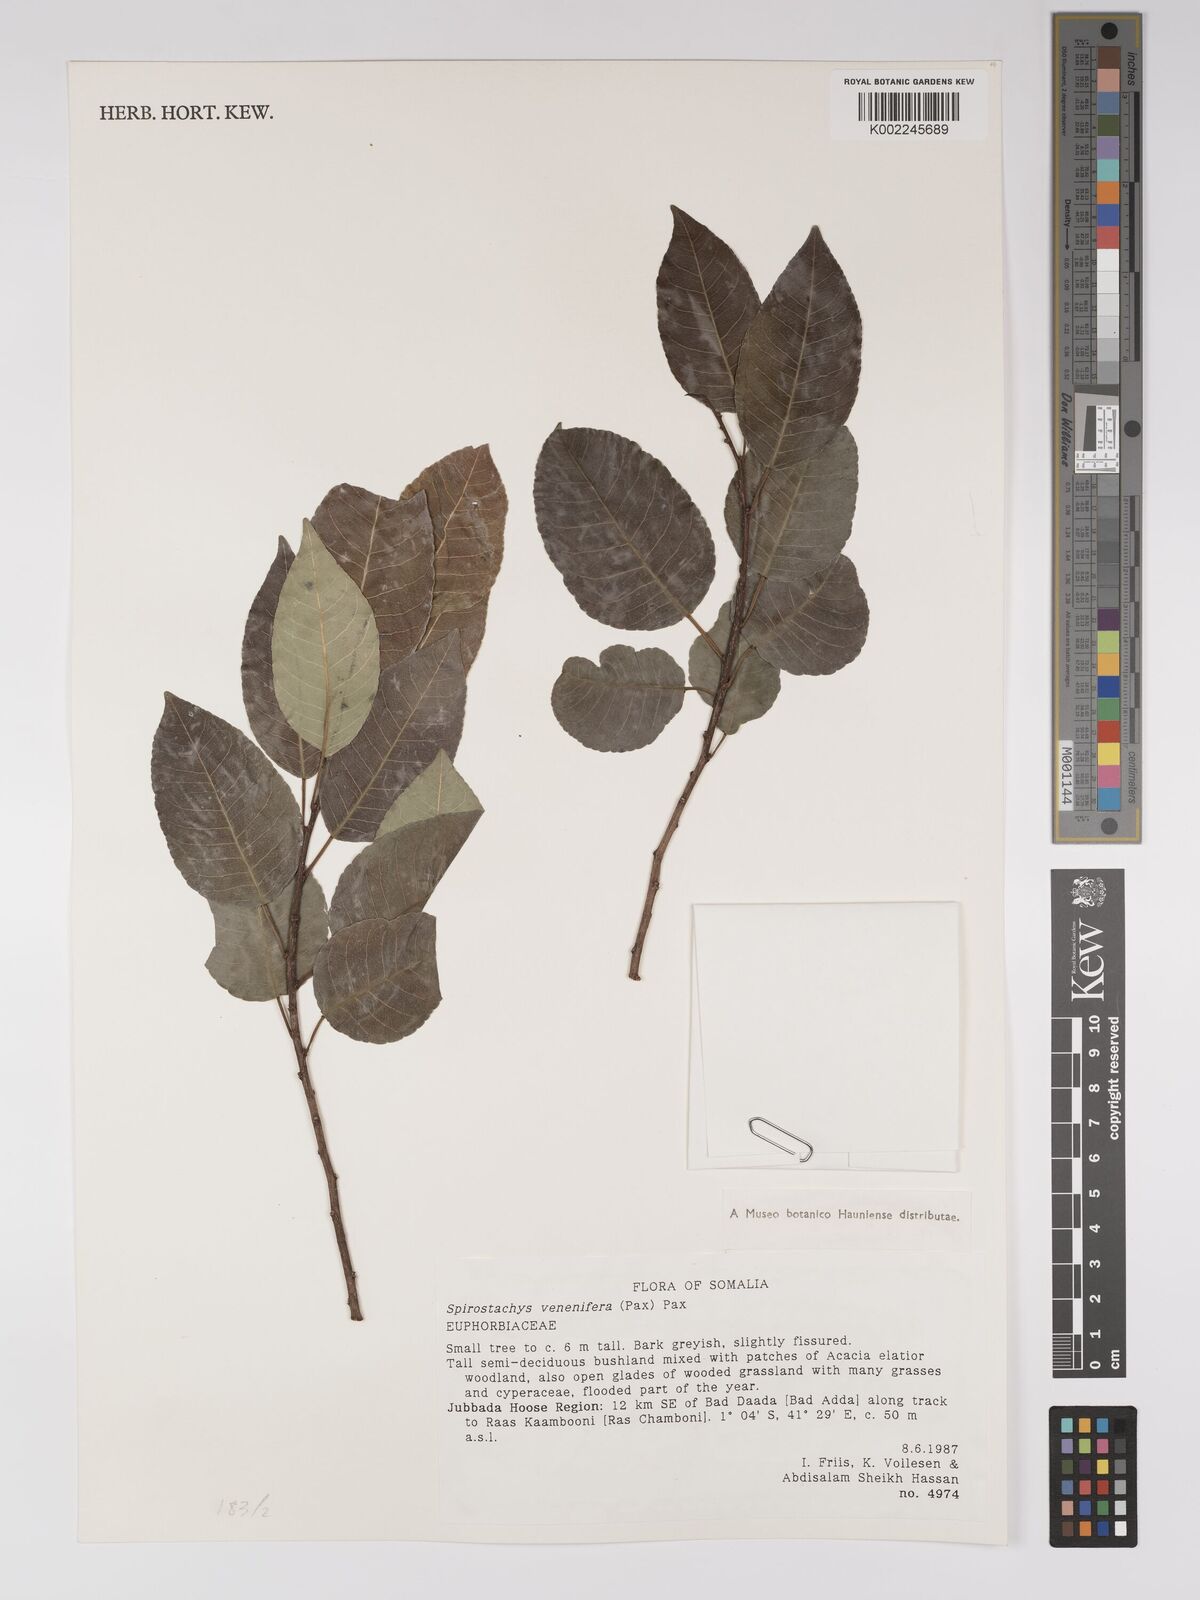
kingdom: Plantae
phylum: Tracheophyta
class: Magnoliopsida
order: Malpighiales
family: Euphorbiaceae
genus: Spirostachys
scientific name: Spirostachys venenifera
